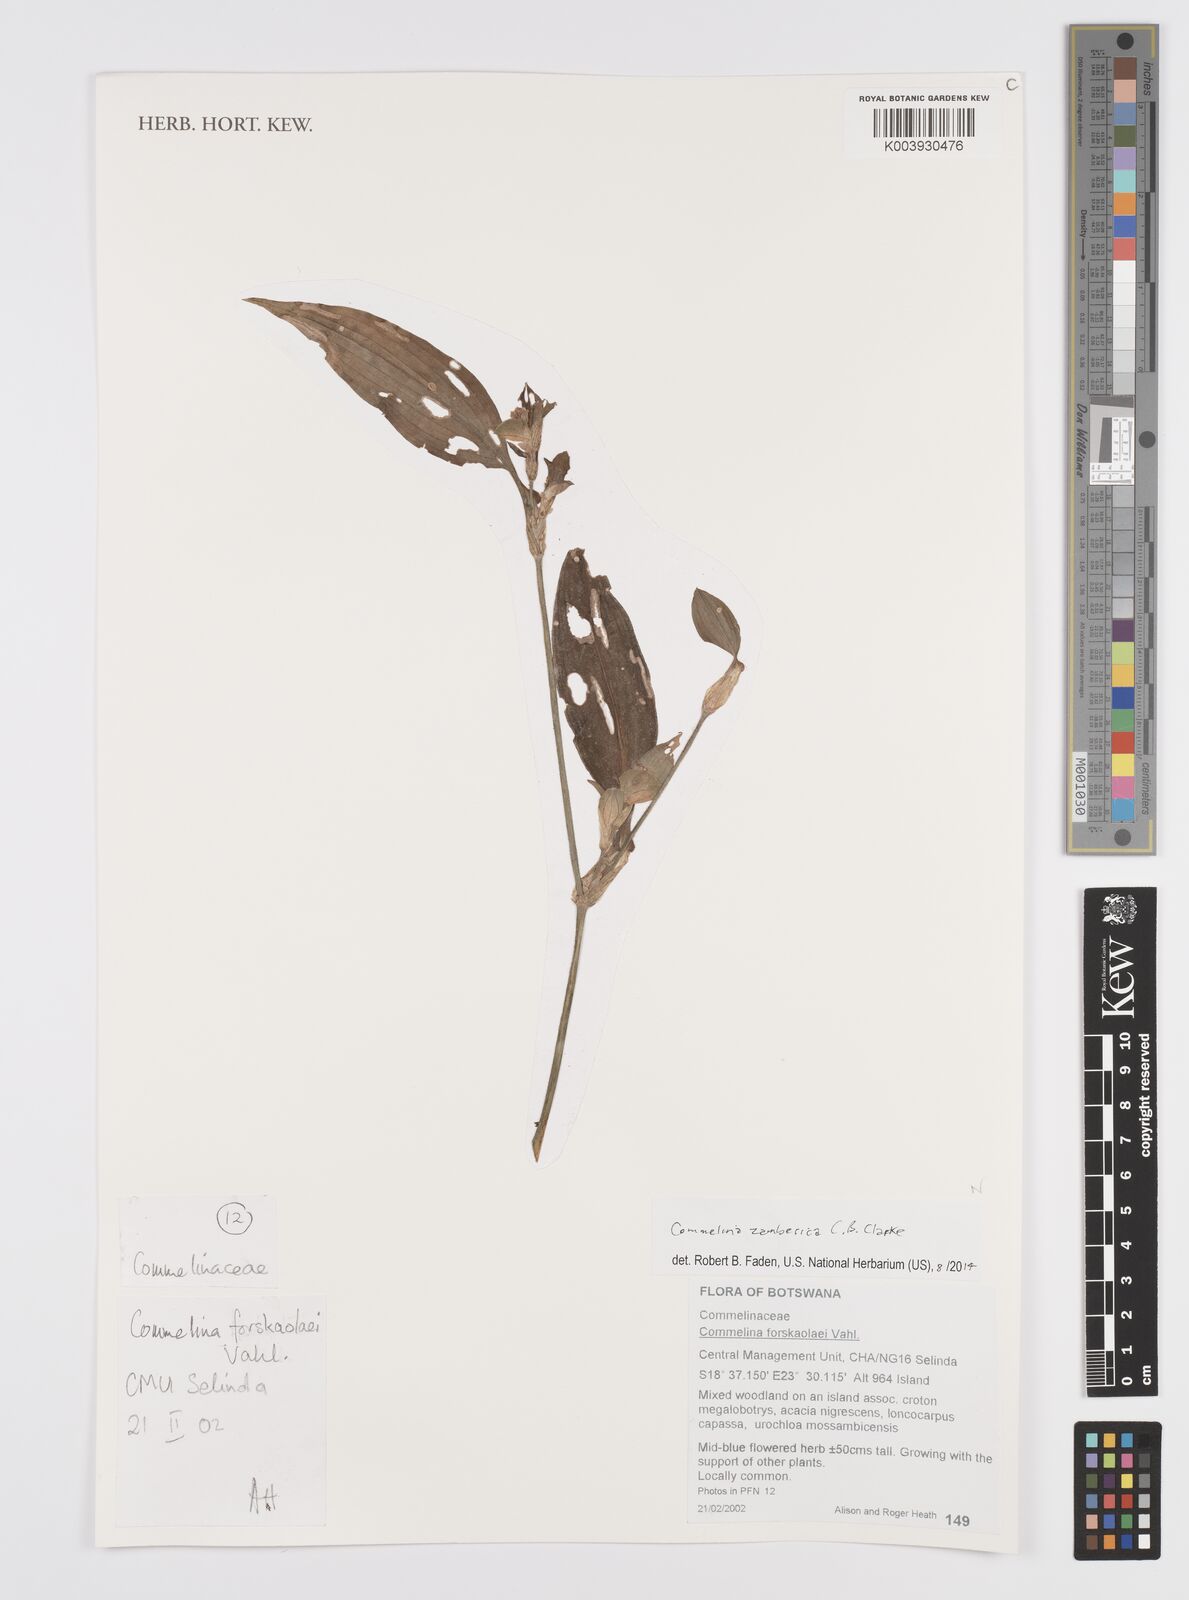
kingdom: Plantae
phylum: Tracheophyta
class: Liliopsida
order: Commelinales
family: Commelinaceae
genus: Commelina
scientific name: Commelina zambesica
